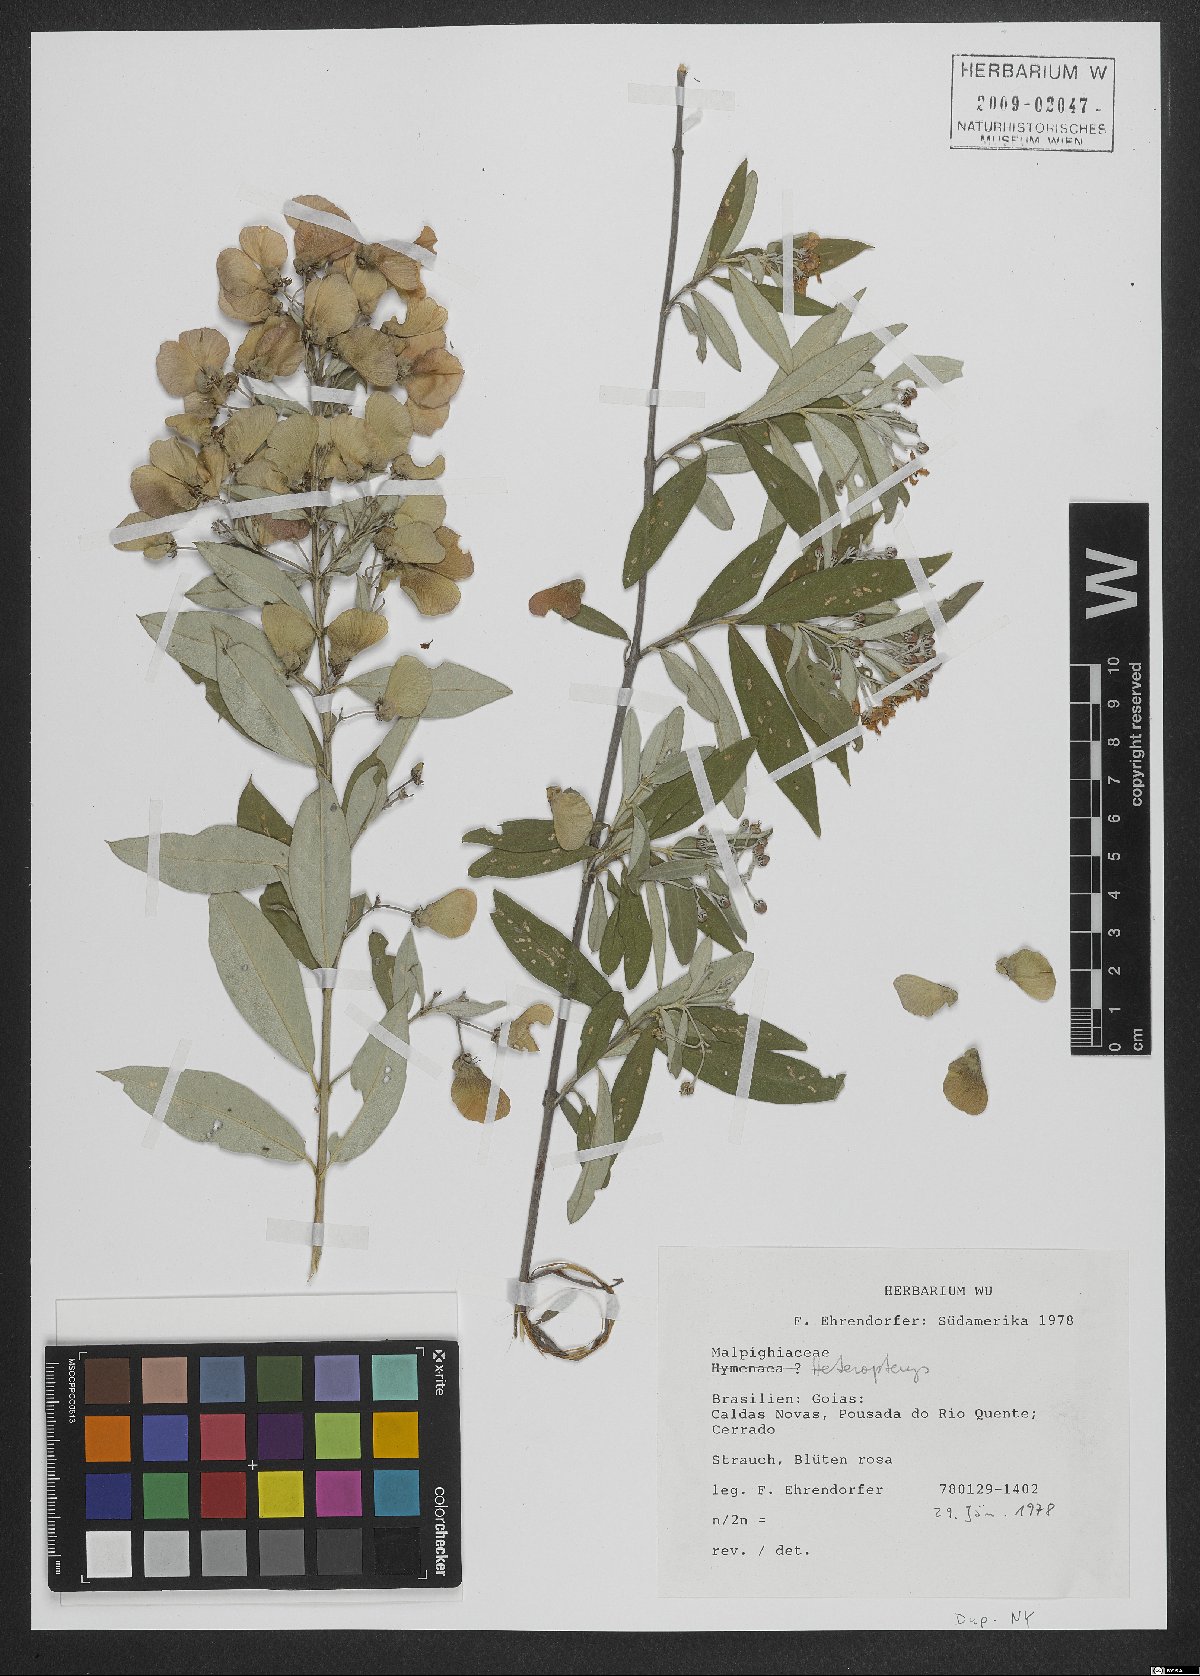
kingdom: Plantae
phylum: Tracheophyta
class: Magnoliopsida
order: Malpighiales
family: Malpighiaceae
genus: Heteropterys
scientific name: Heteropterys
